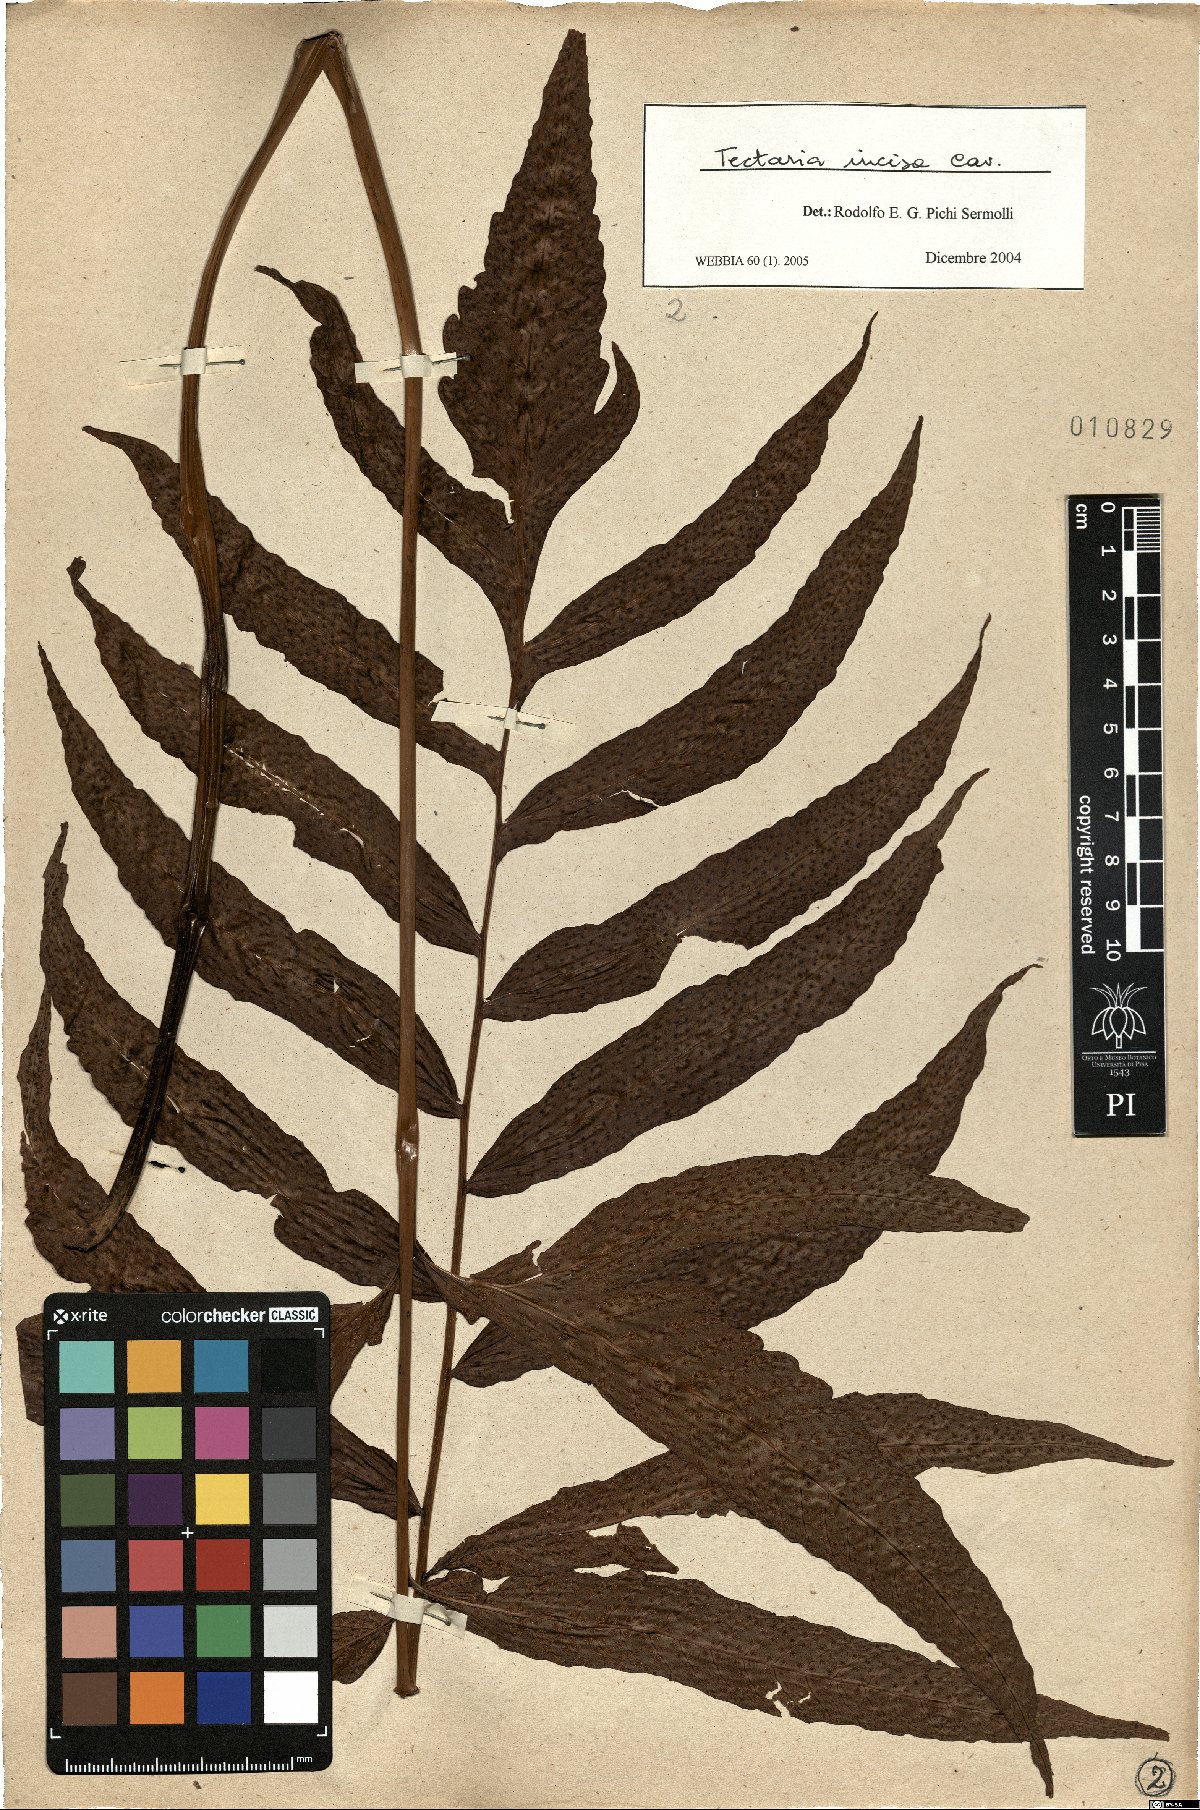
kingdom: Plantae
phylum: Tracheophyta
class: Polypodiopsida
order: Polypodiales
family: Tectariaceae
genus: Tectaria
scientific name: Tectaria incisa
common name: Incised halberd fern
